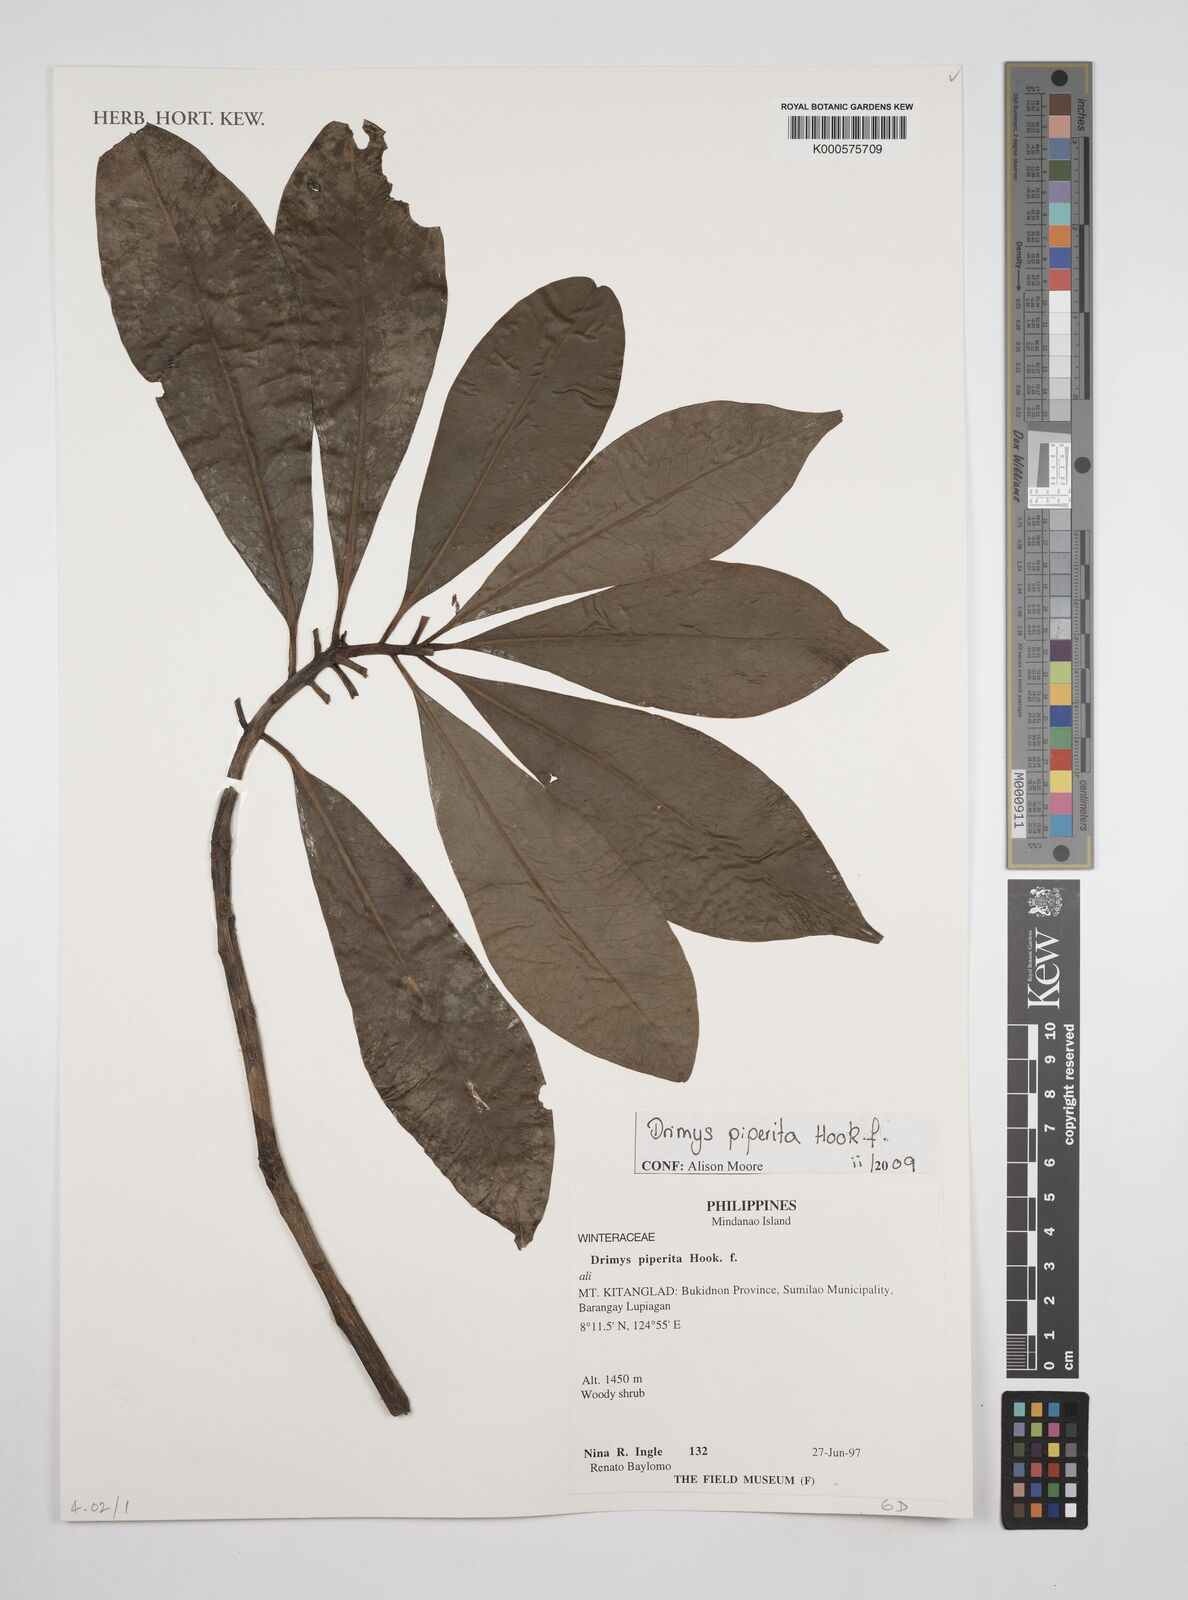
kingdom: Plantae
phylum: Tracheophyta
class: Magnoliopsida
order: Canellales
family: Winteraceae
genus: Drimys
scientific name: Drimys piperita
